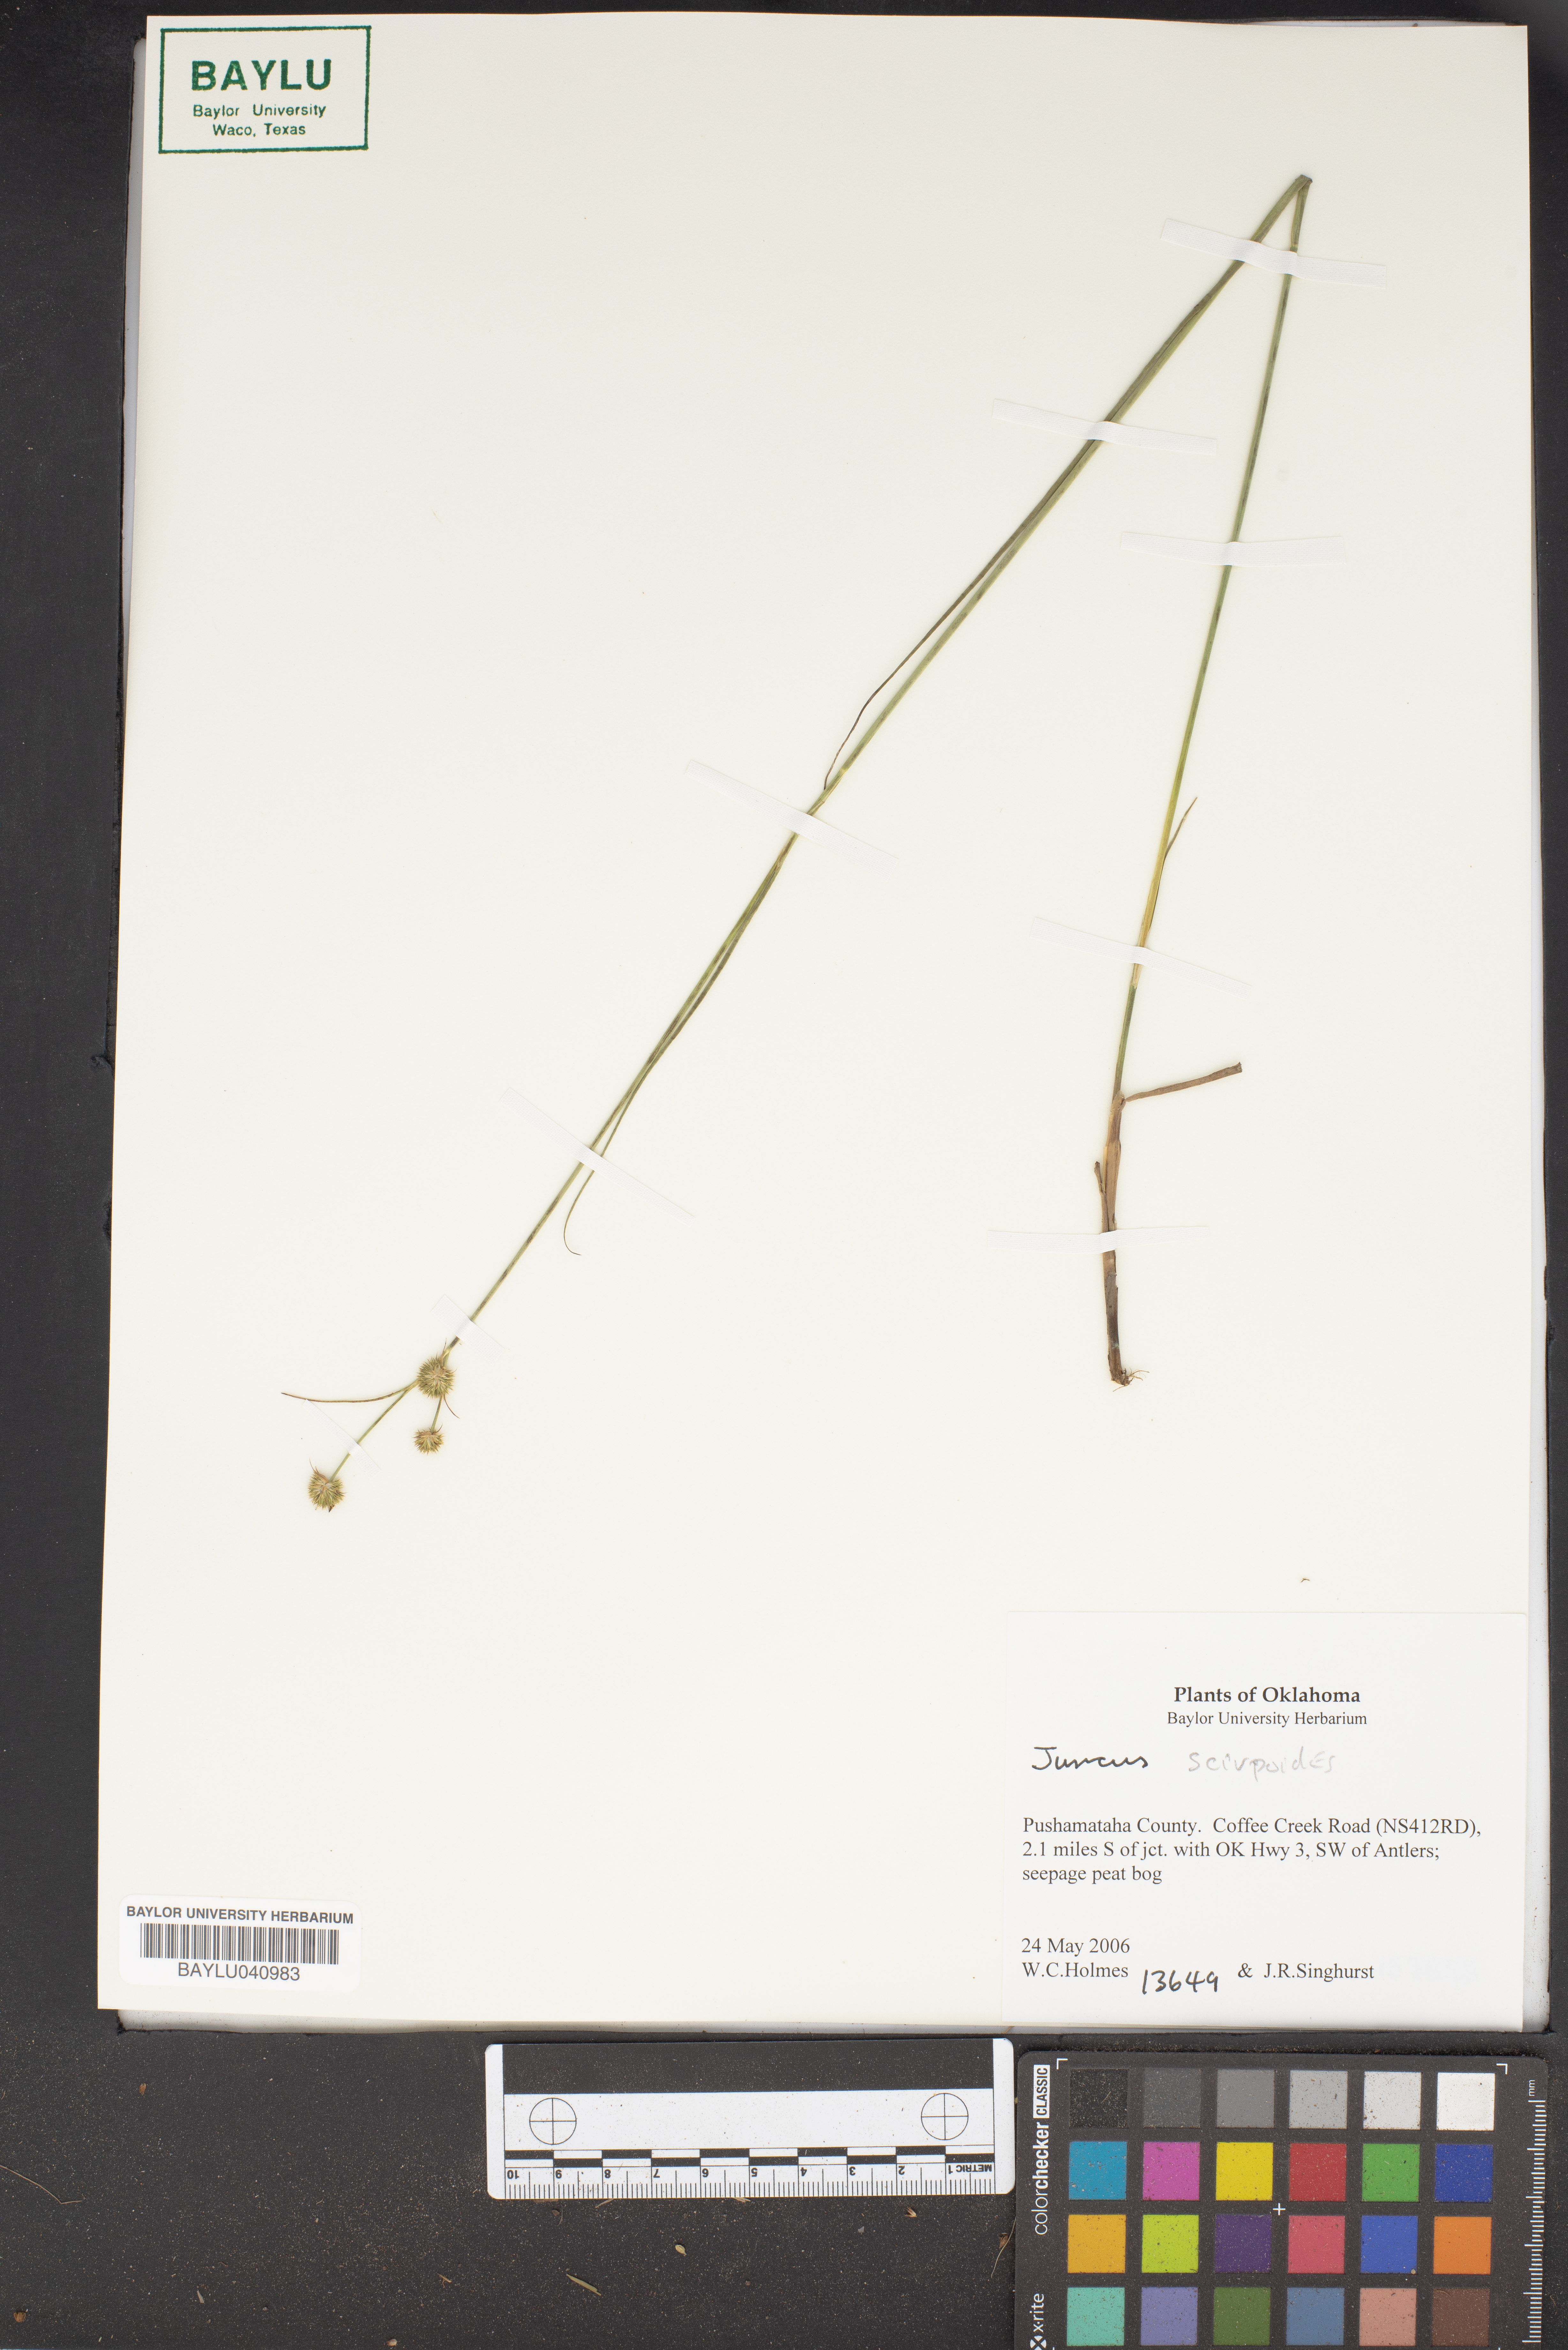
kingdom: Plantae
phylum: Tracheophyta
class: Liliopsida
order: Poales
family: Juncaceae
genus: Juncus
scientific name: Juncus scirpoides
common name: Needlepod rush
